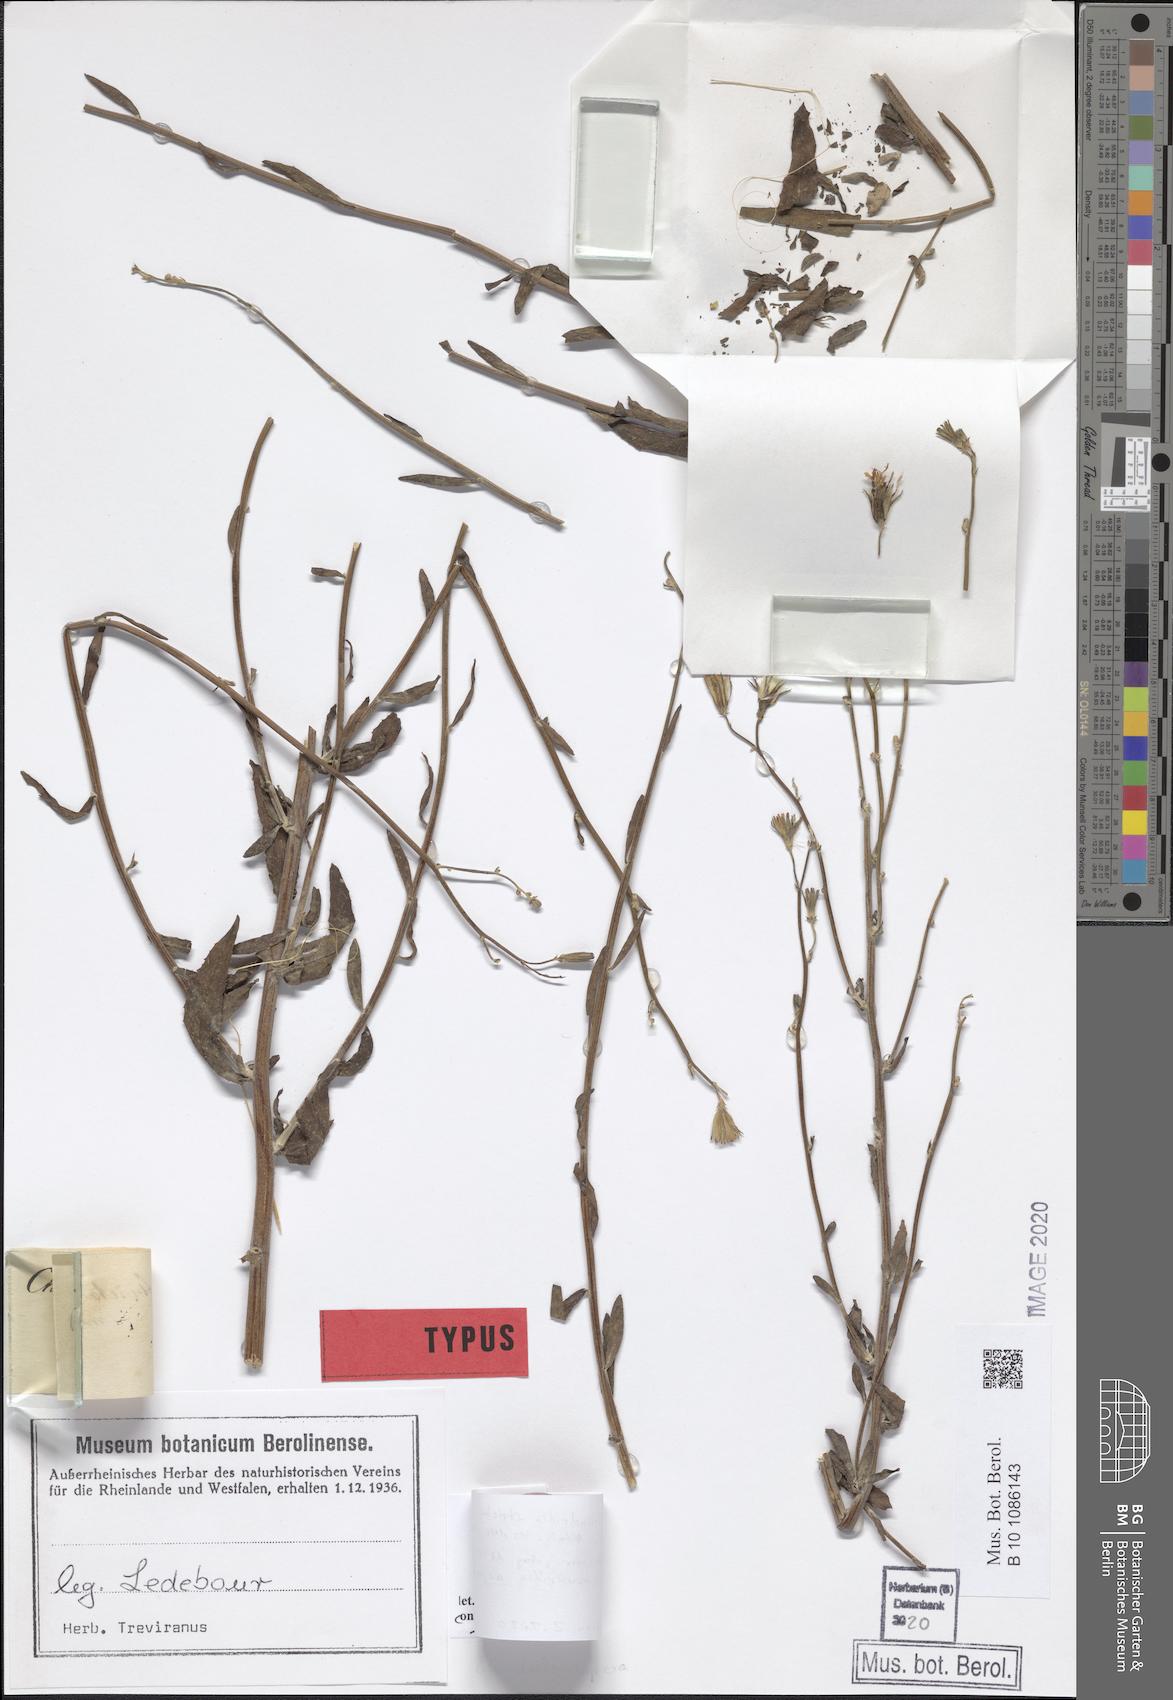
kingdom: Plantae
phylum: Tracheophyta
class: Magnoliopsida
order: Asterales
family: Asteraceae
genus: Chondrilla
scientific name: Chondrilla aspera
